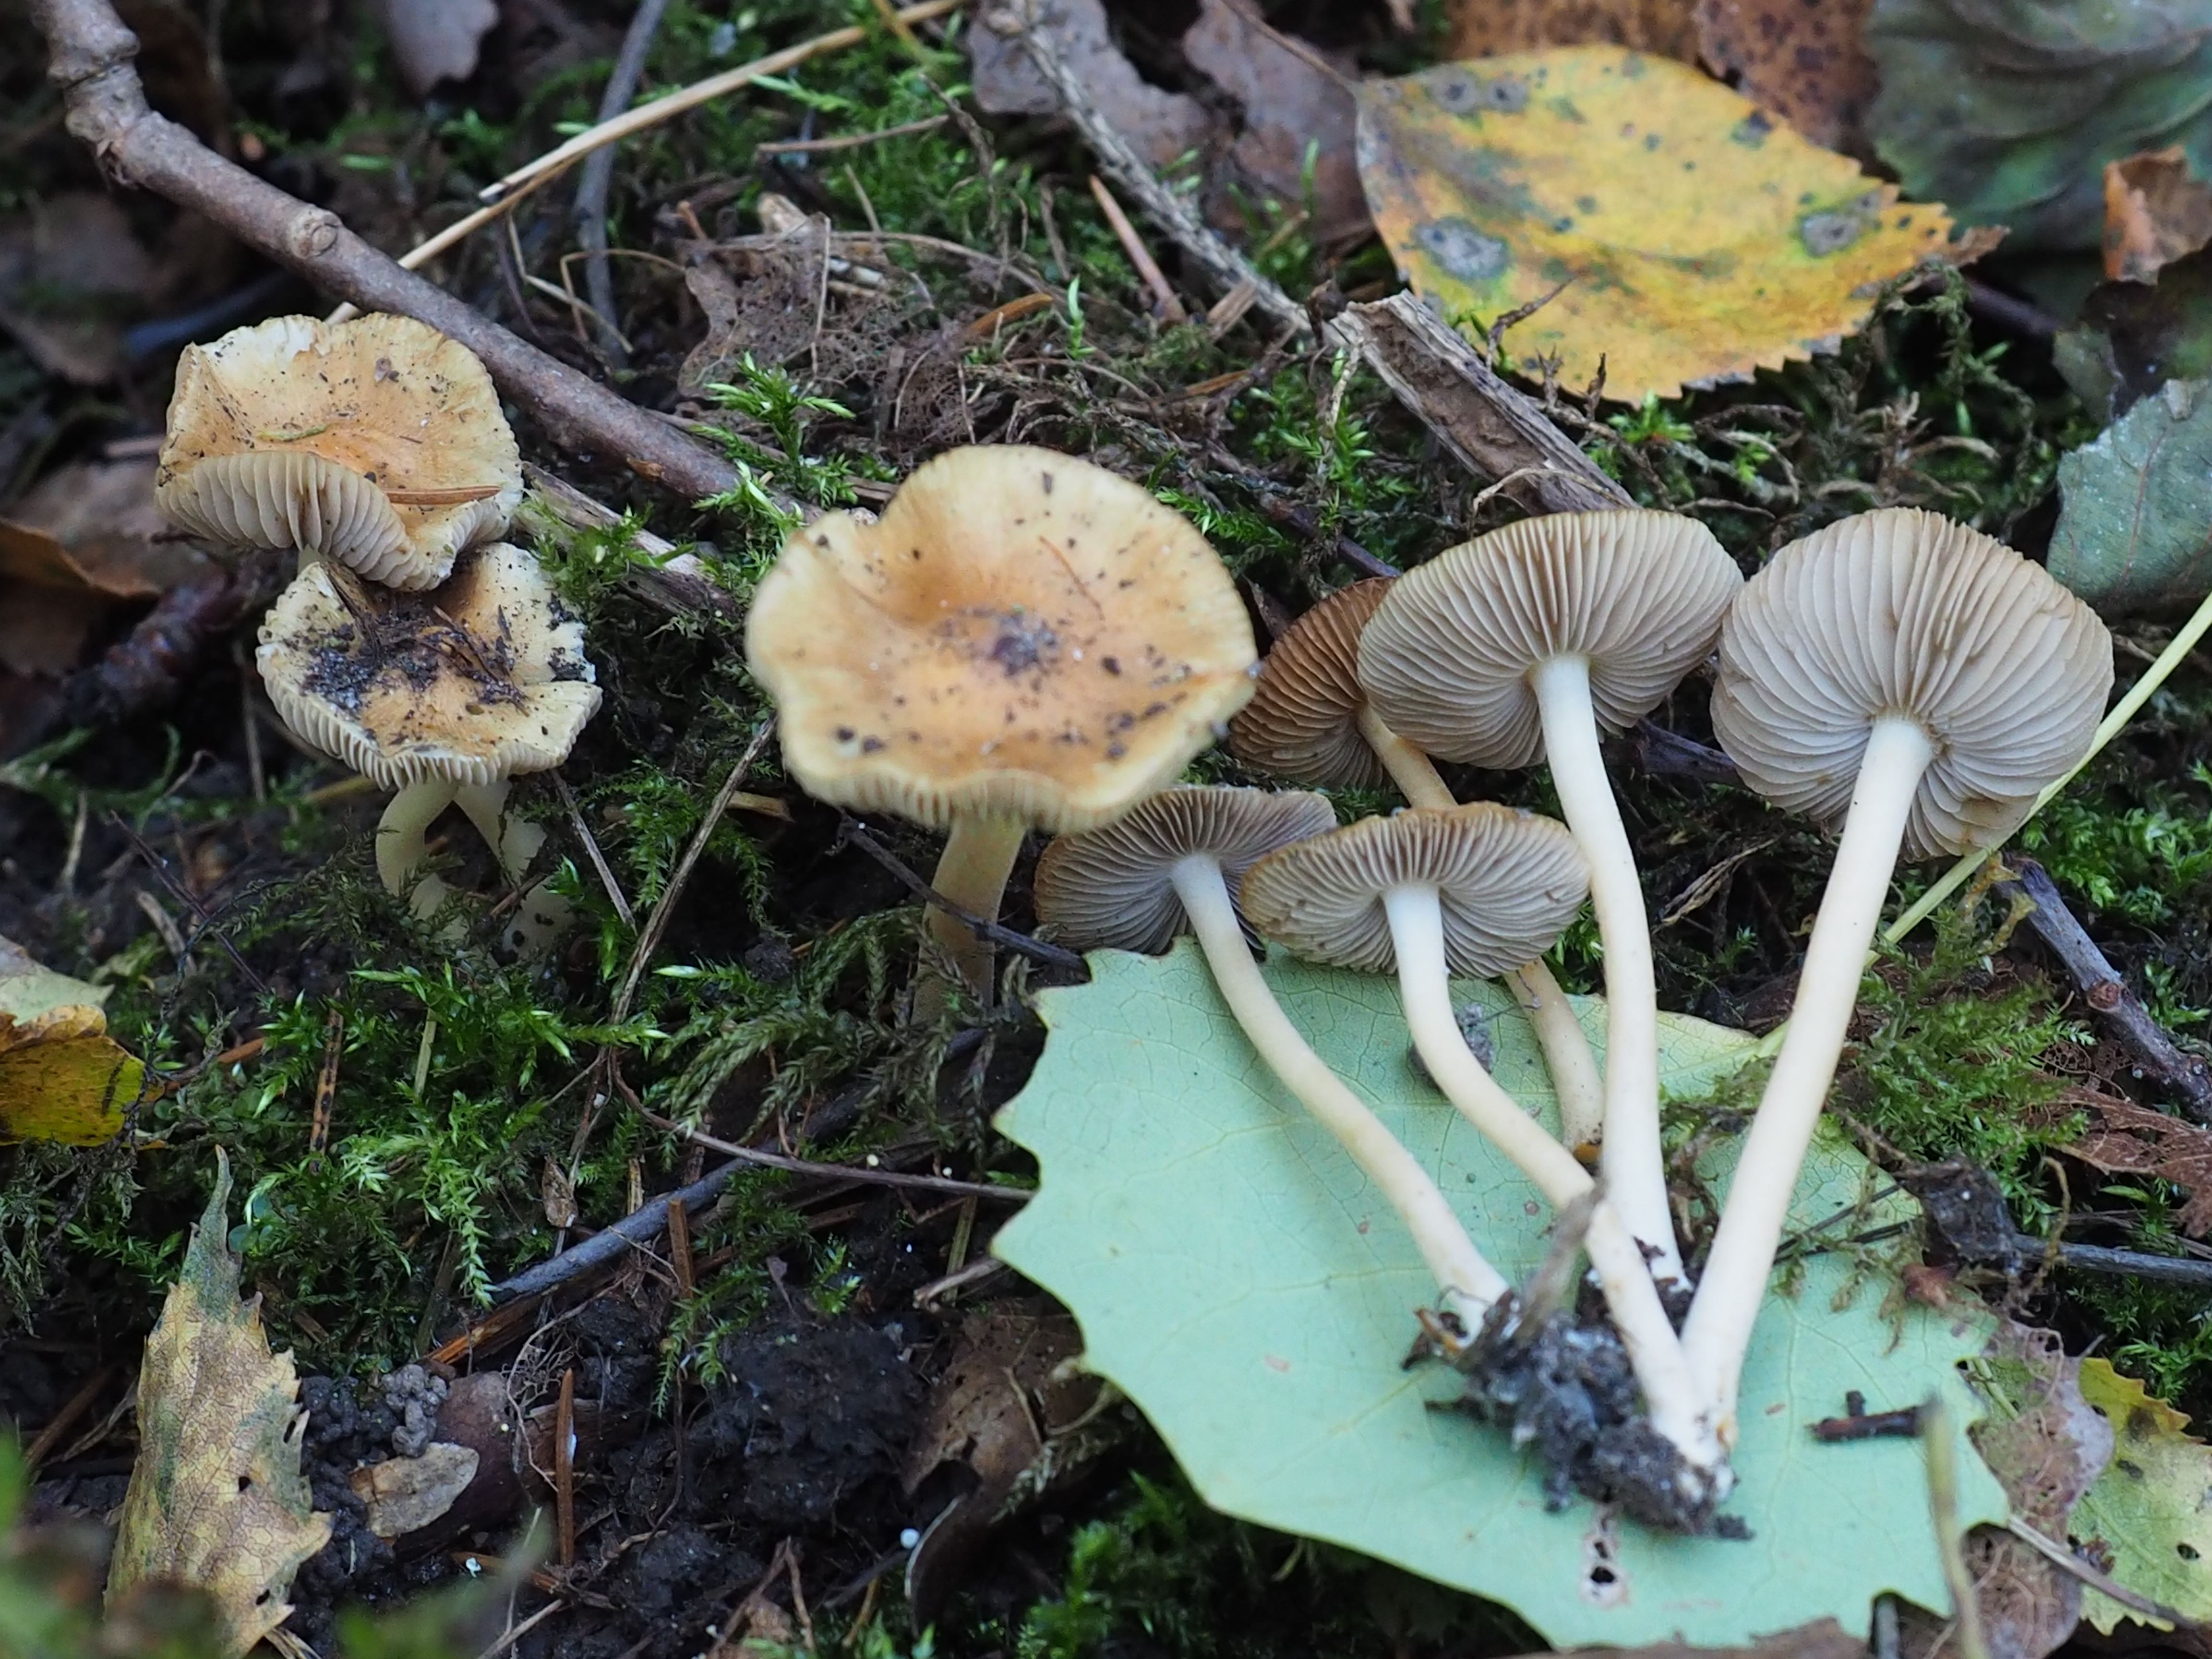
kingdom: Fungi
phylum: Basidiomycota
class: Agaricomycetes
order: Agaricales
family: Inocybaceae
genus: Inocybe
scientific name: Inocybe mixtilis
